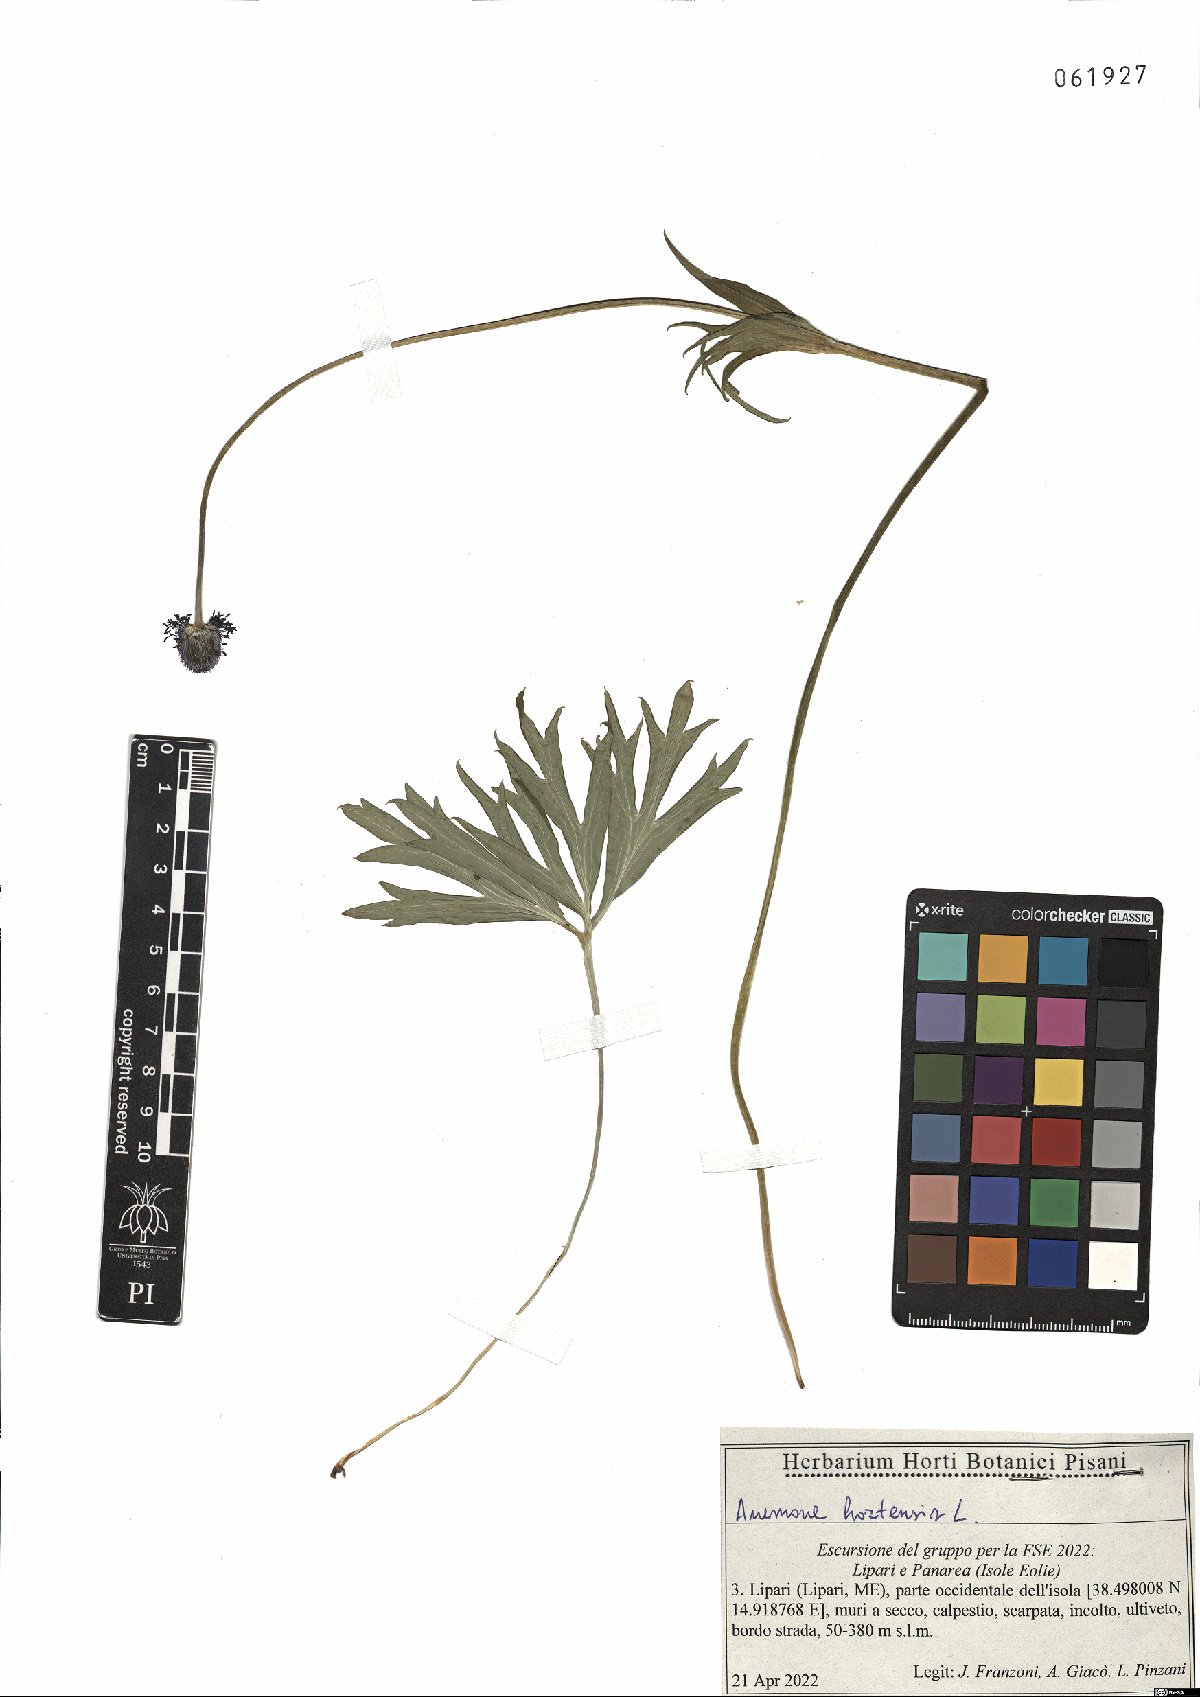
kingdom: Plantae
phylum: Tracheophyta
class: Magnoliopsida
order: Ranunculales
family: Ranunculaceae
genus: Anemone
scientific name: Anemone hortensis
